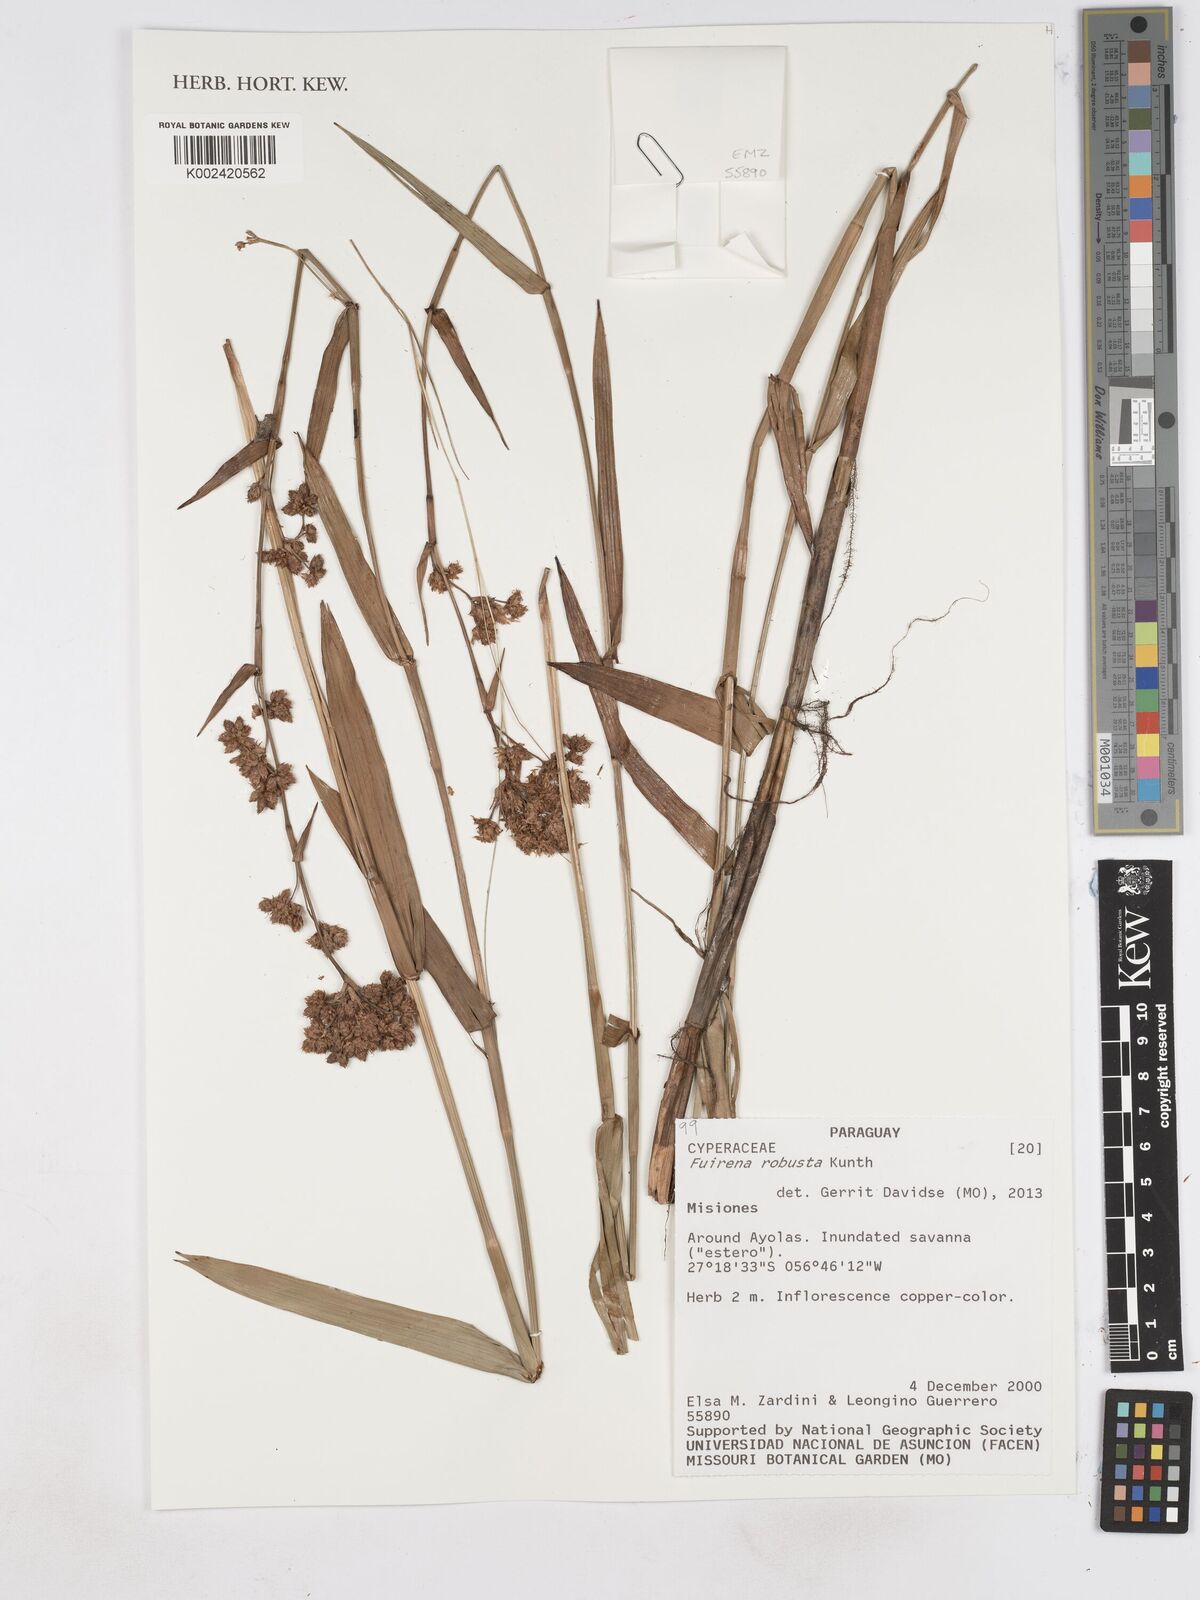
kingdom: Plantae
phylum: Tracheophyta
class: Liliopsida
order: Poales
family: Cyperaceae
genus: Fuirena
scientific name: Fuirena robusta
